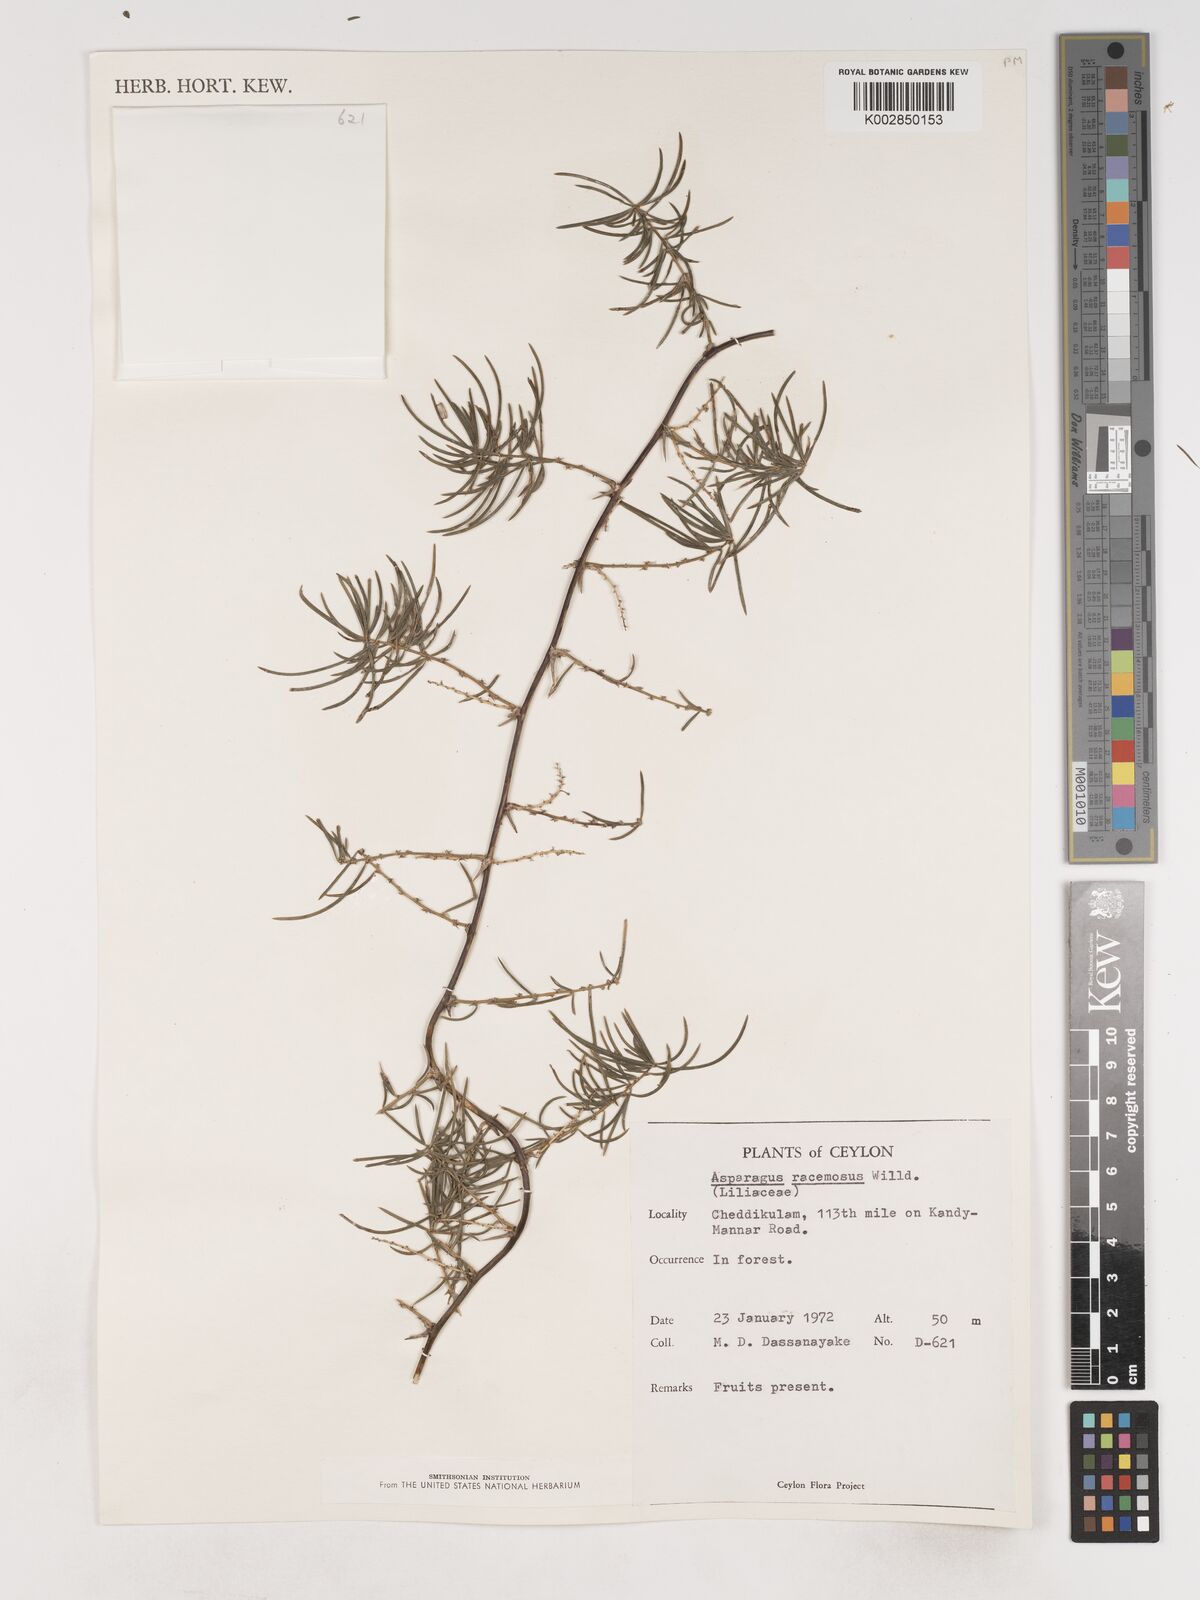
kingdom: Plantae
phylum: Tracheophyta
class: Liliopsida
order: Asparagales
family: Asparagaceae
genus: Asparagus
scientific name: Asparagus racemosus
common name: Asparagus-fern
